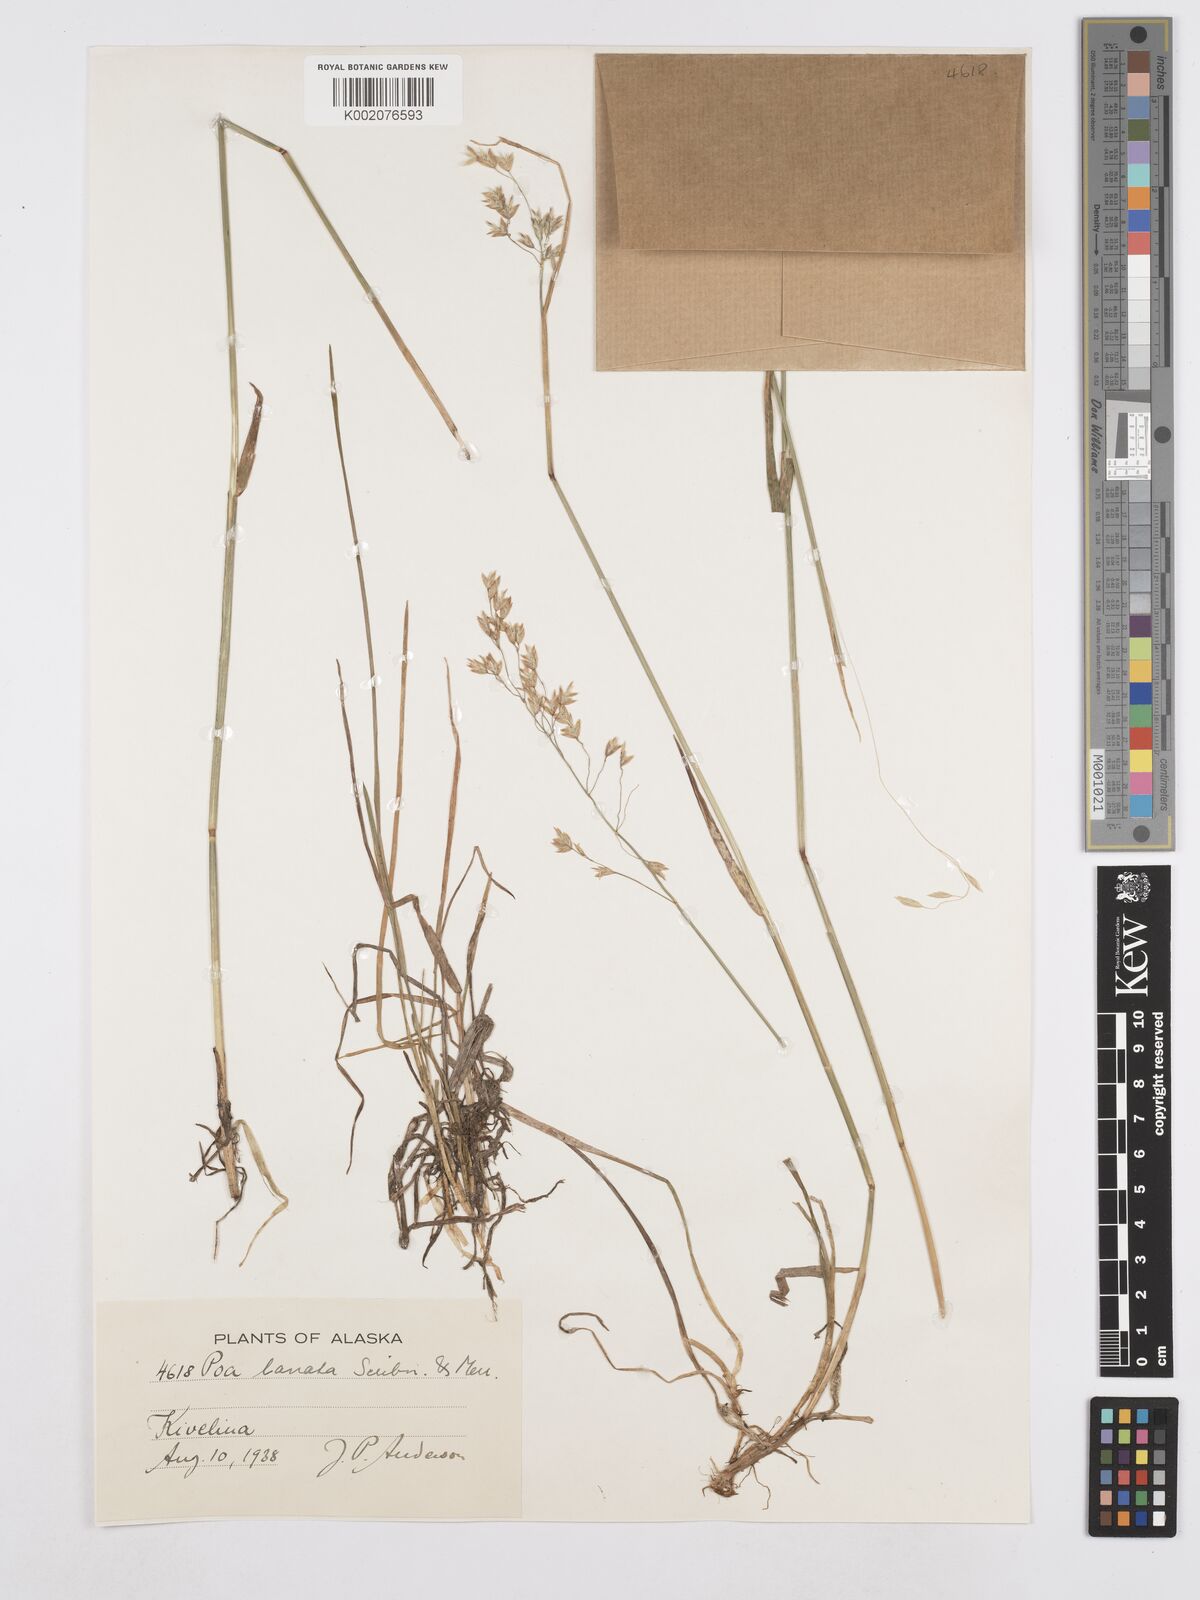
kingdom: Plantae
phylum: Tracheophyta
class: Liliopsida
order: Poales
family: Poaceae
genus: Poa
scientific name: Poa lanata
